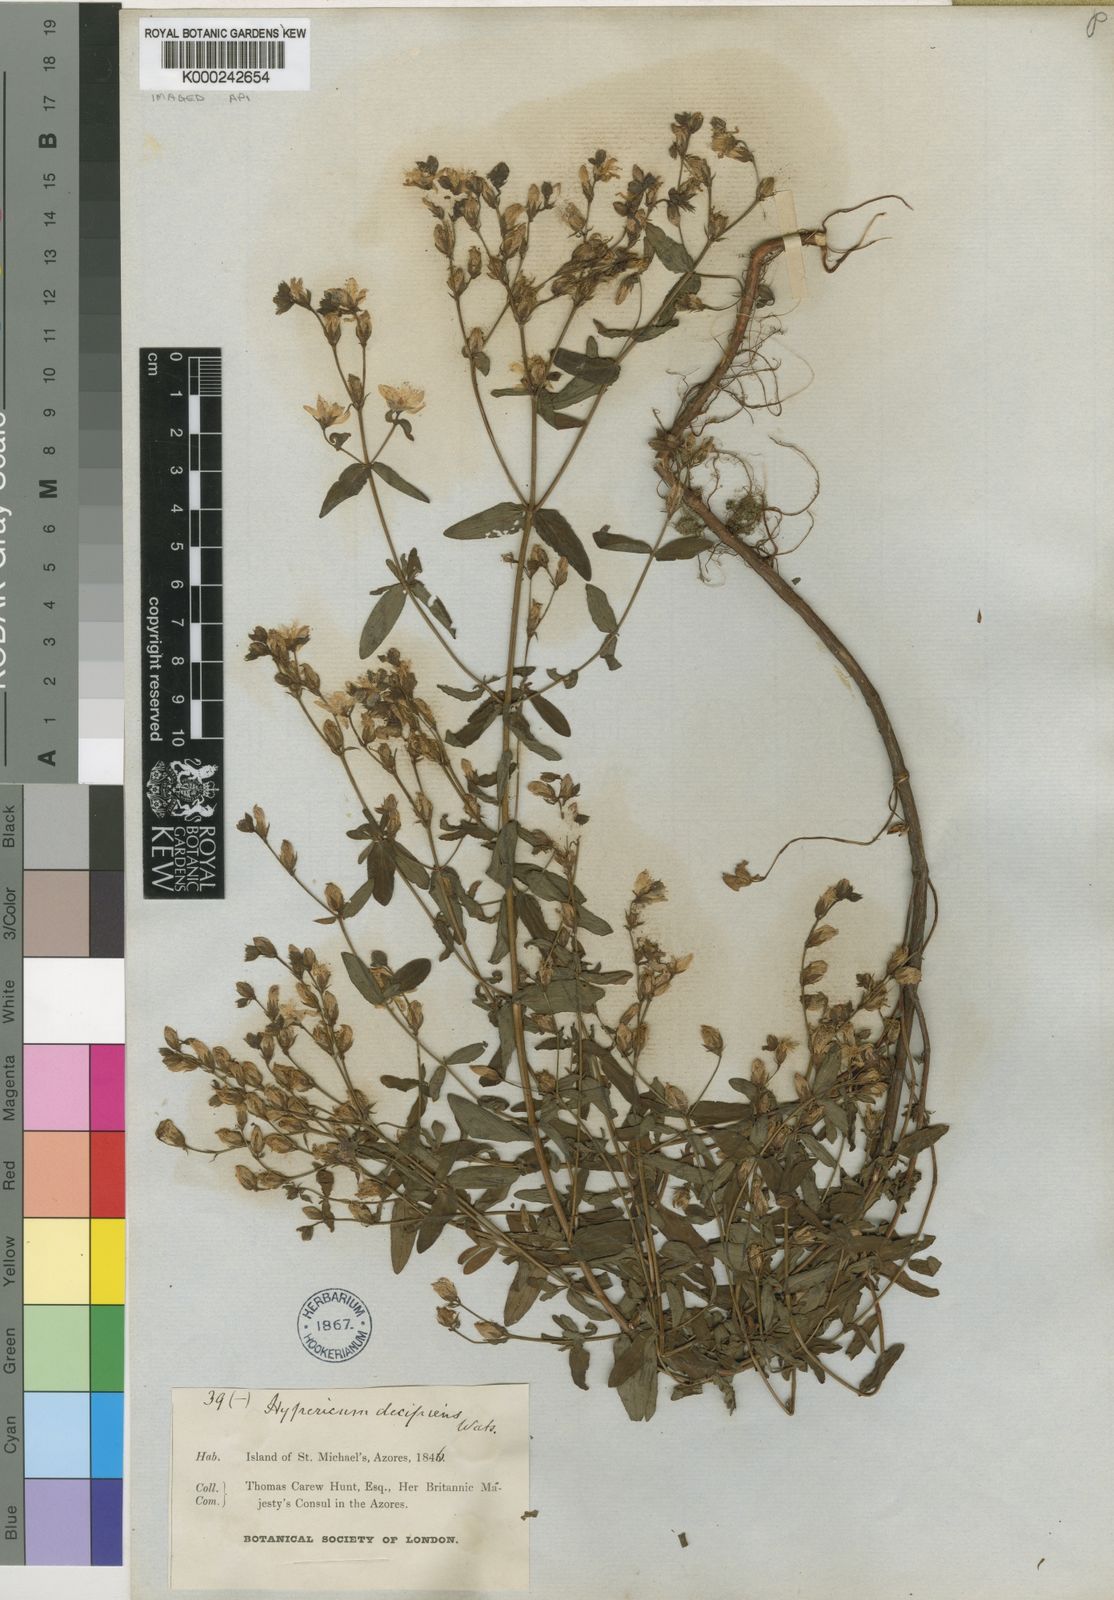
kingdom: Plantae
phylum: Tracheophyta
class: Magnoliopsida
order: Malpighiales
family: Hypericaceae
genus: Hypericum
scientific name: Hypericum undulatum
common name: Wavy st. john's-wort
